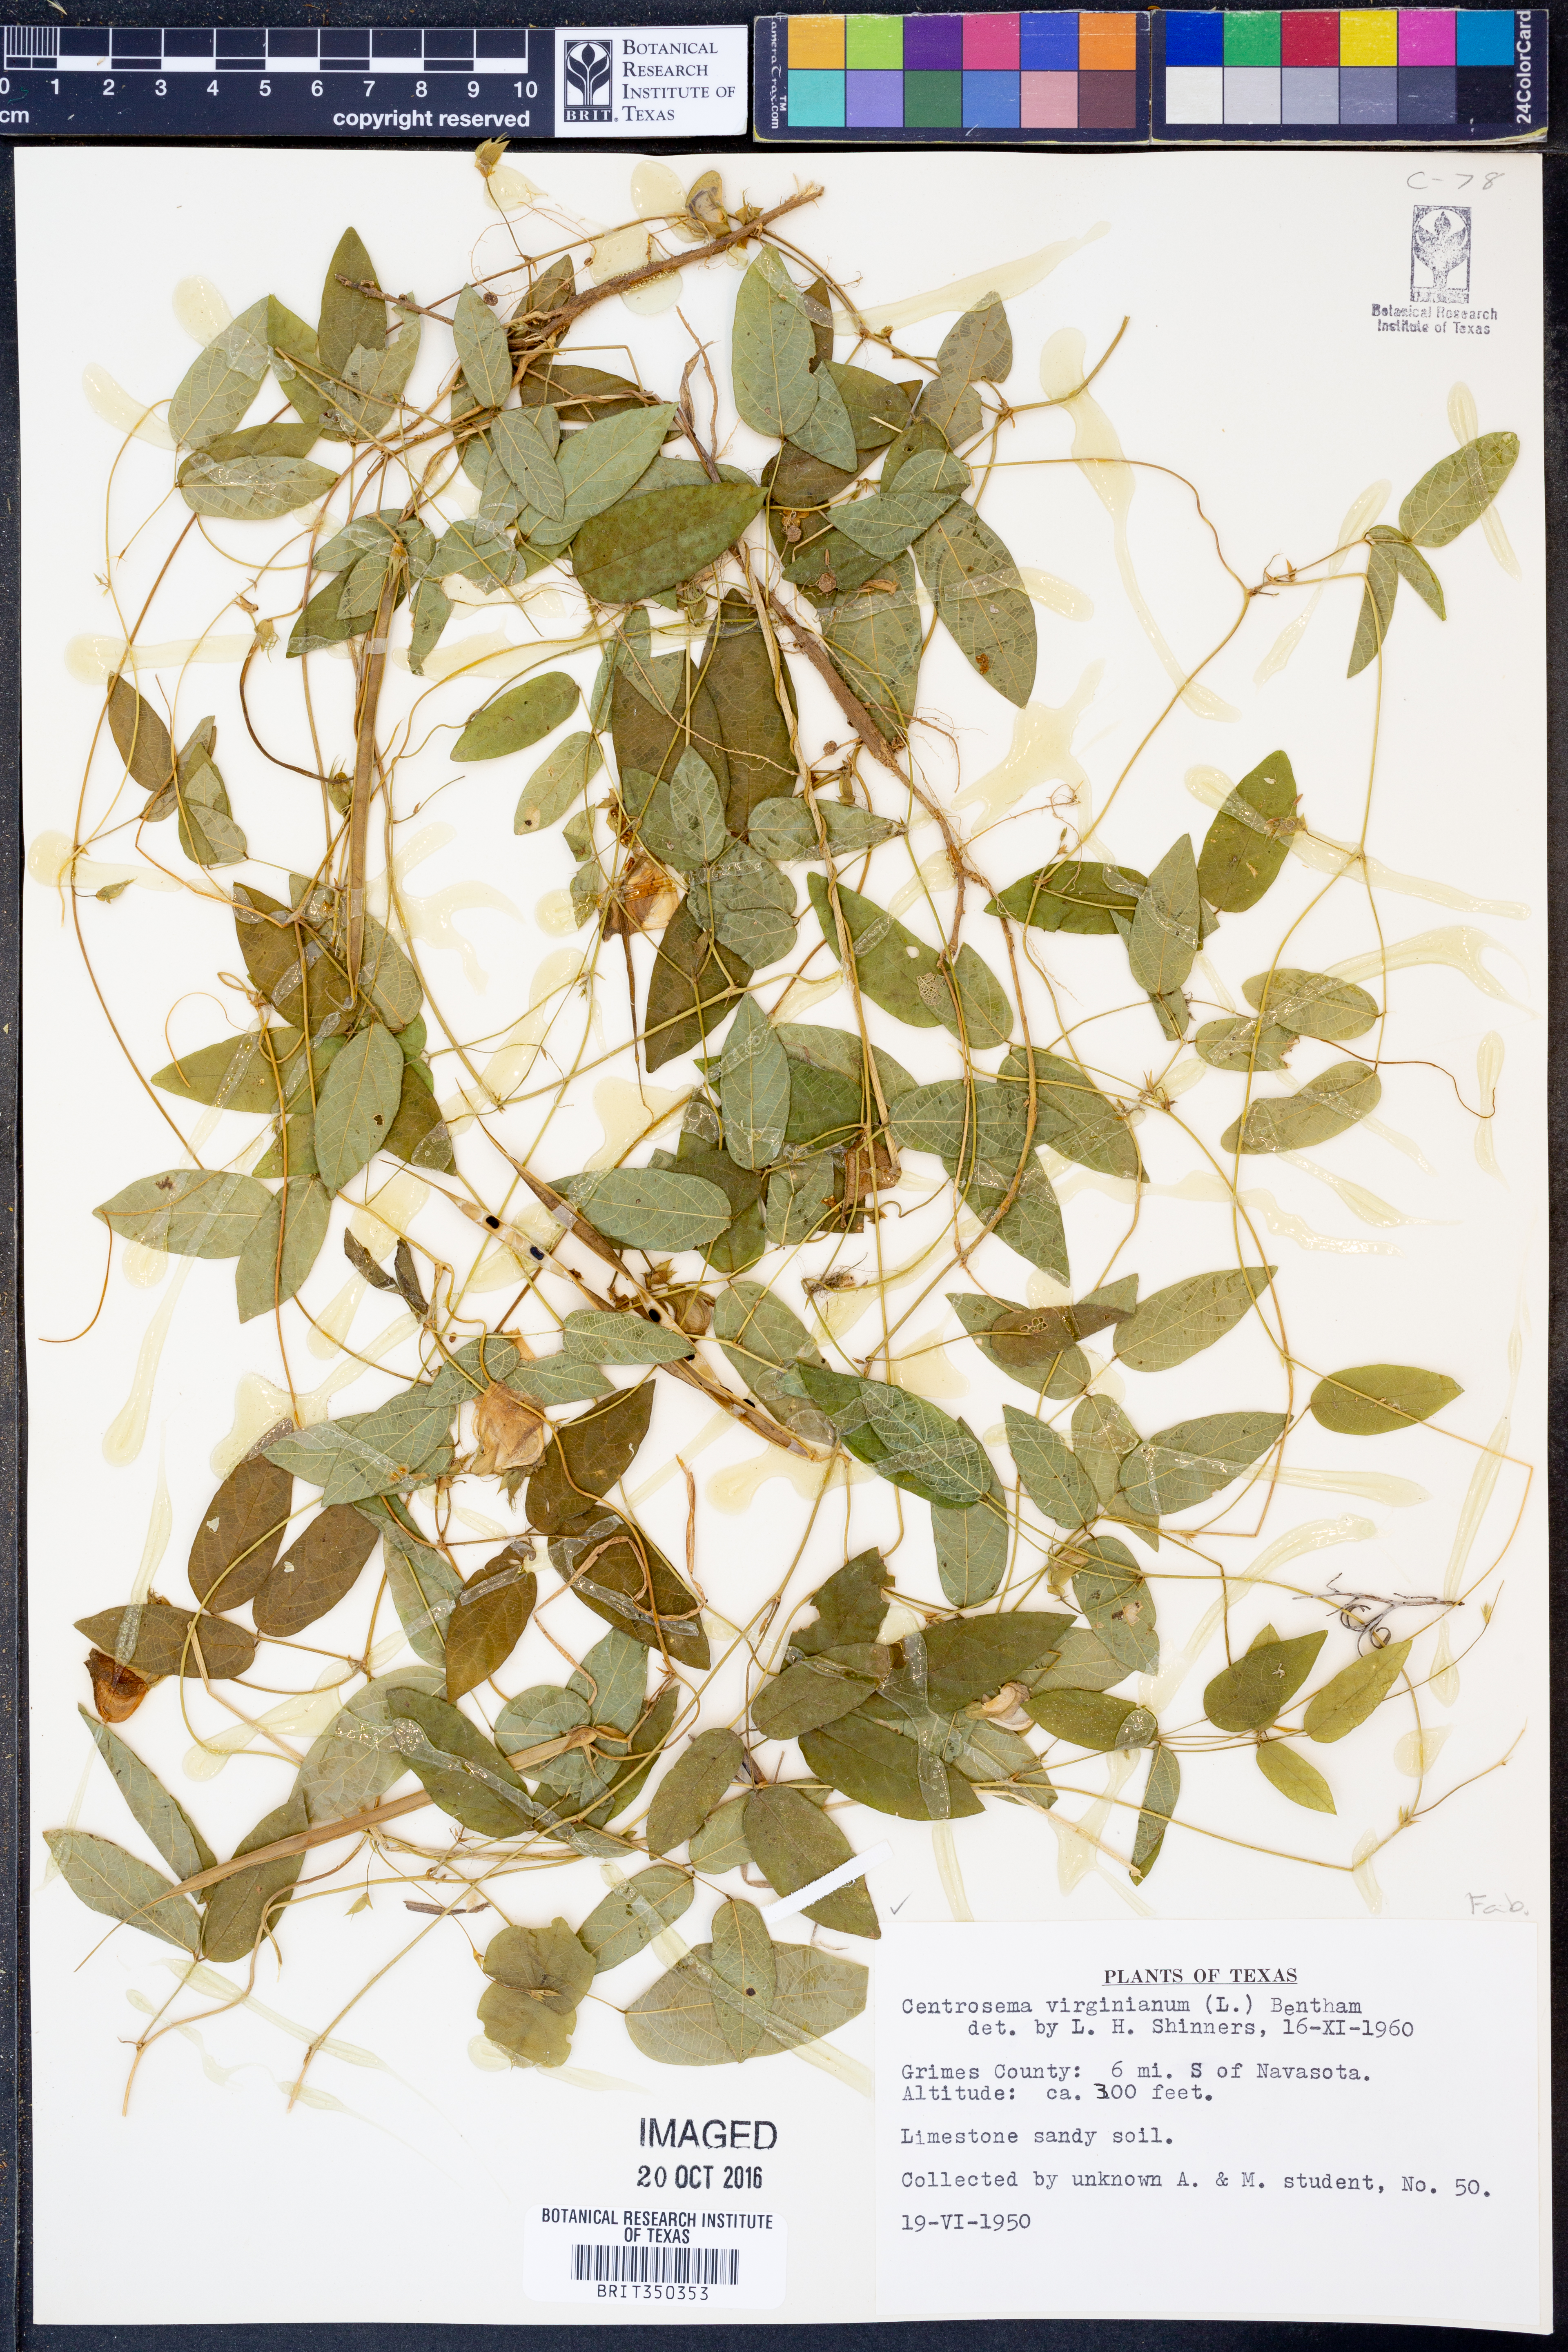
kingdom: Plantae
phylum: Tracheophyta
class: Magnoliopsida
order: Fabales
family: Fabaceae
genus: Centrosema
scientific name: Centrosema virginianum
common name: Butterfly-pea
